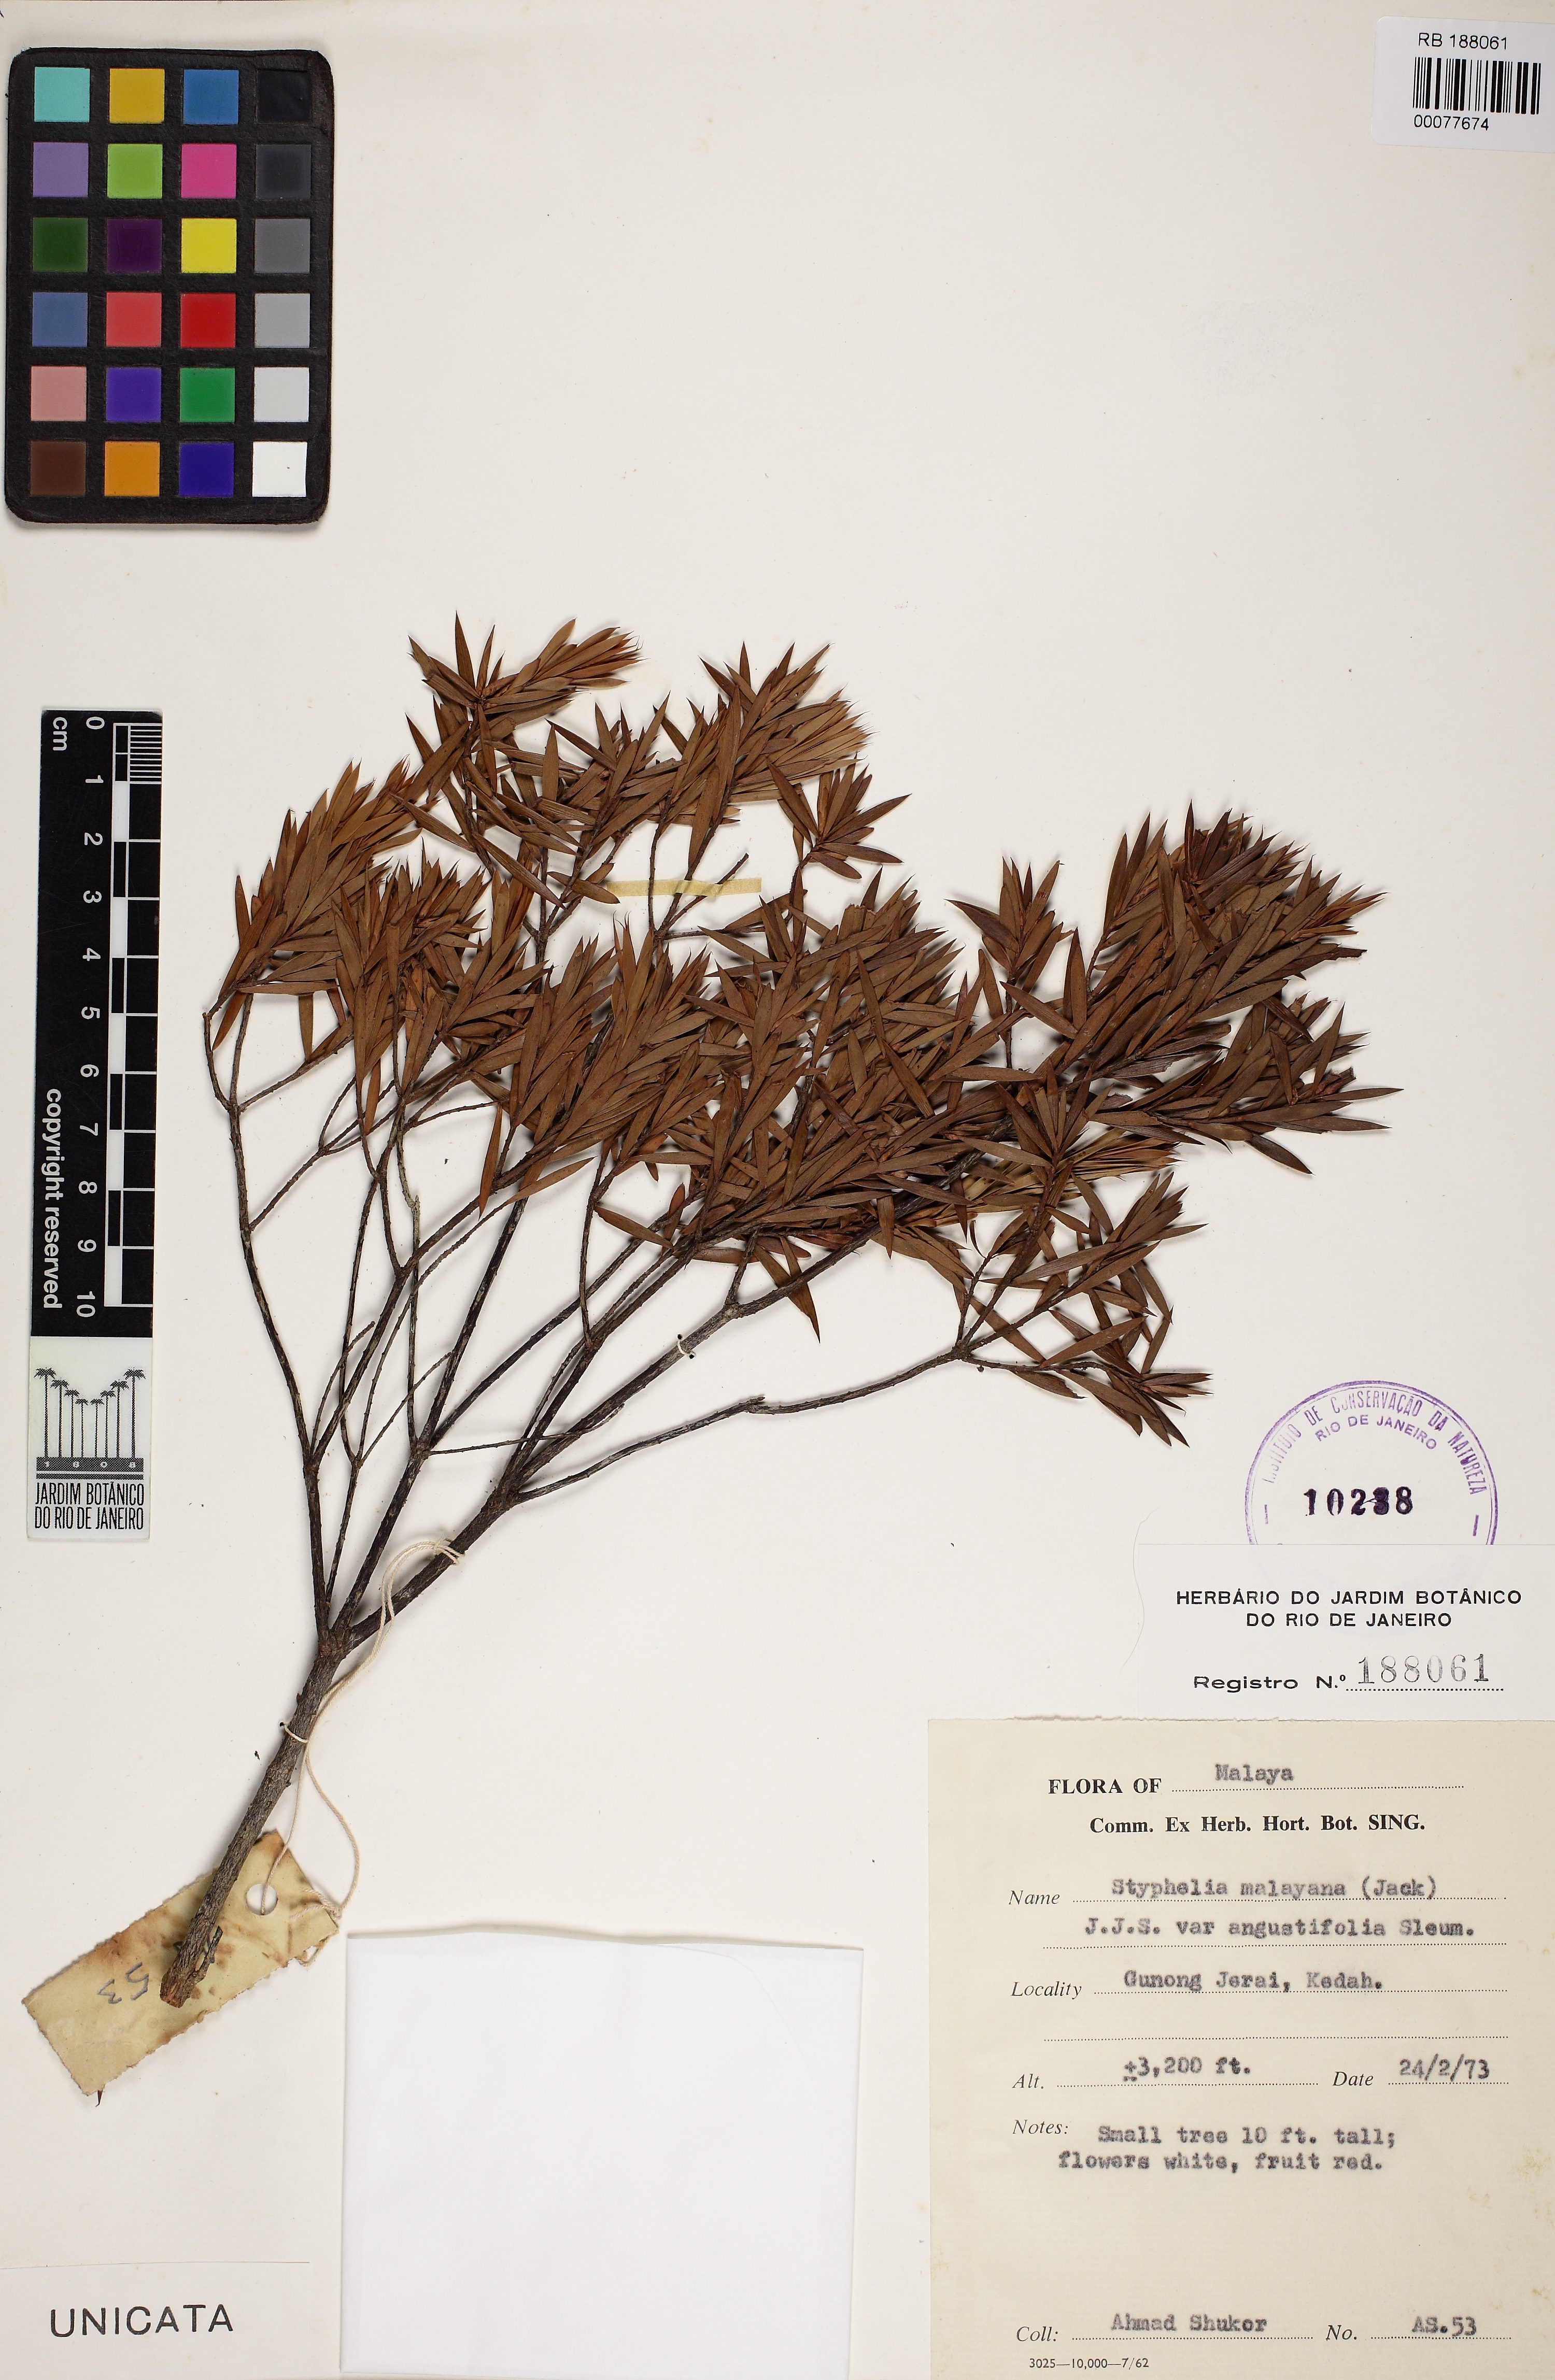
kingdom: Plantae
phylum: Tracheophyta
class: Magnoliopsida
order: Ericales
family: Ericaceae
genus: Styphelia
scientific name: Styphelia malayana
